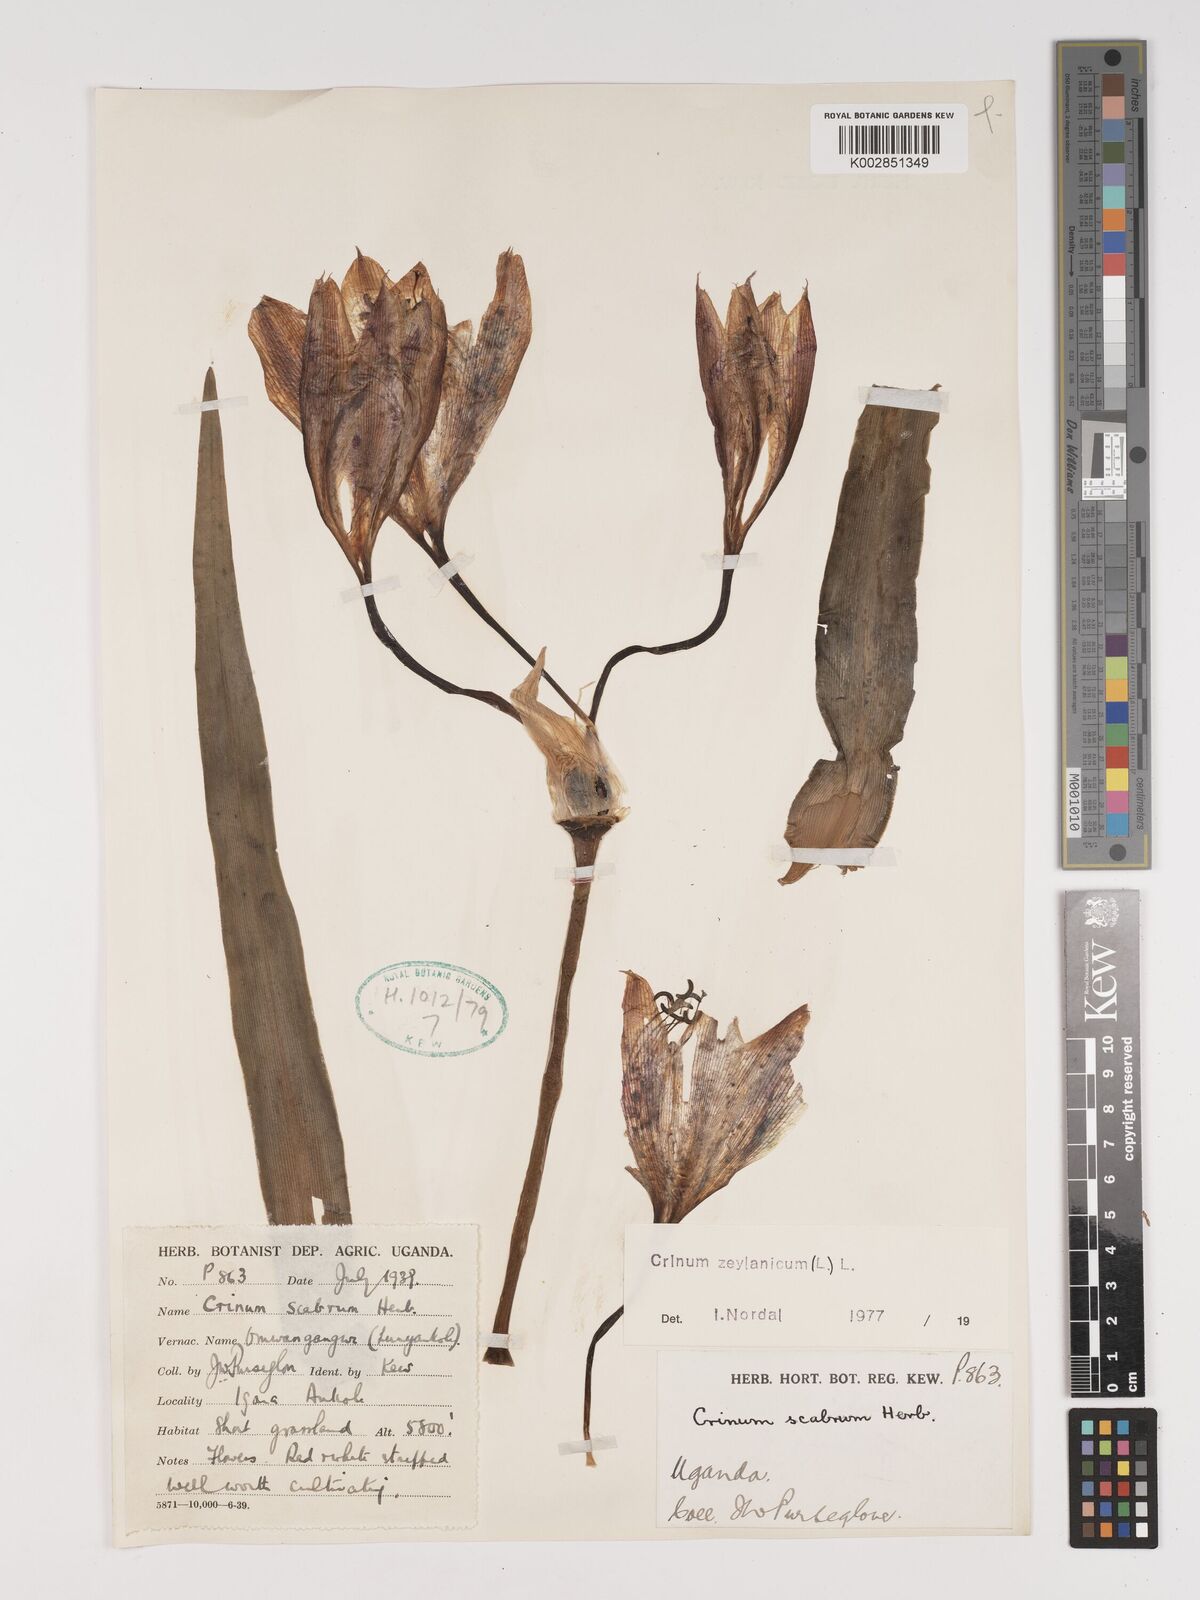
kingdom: Plantae
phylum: Tracheophyta
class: Liliopsida
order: Asparagales
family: Amaryllidaceae
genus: Crinum
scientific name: Crinum zeylanicum
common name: Ceylon swamplily
